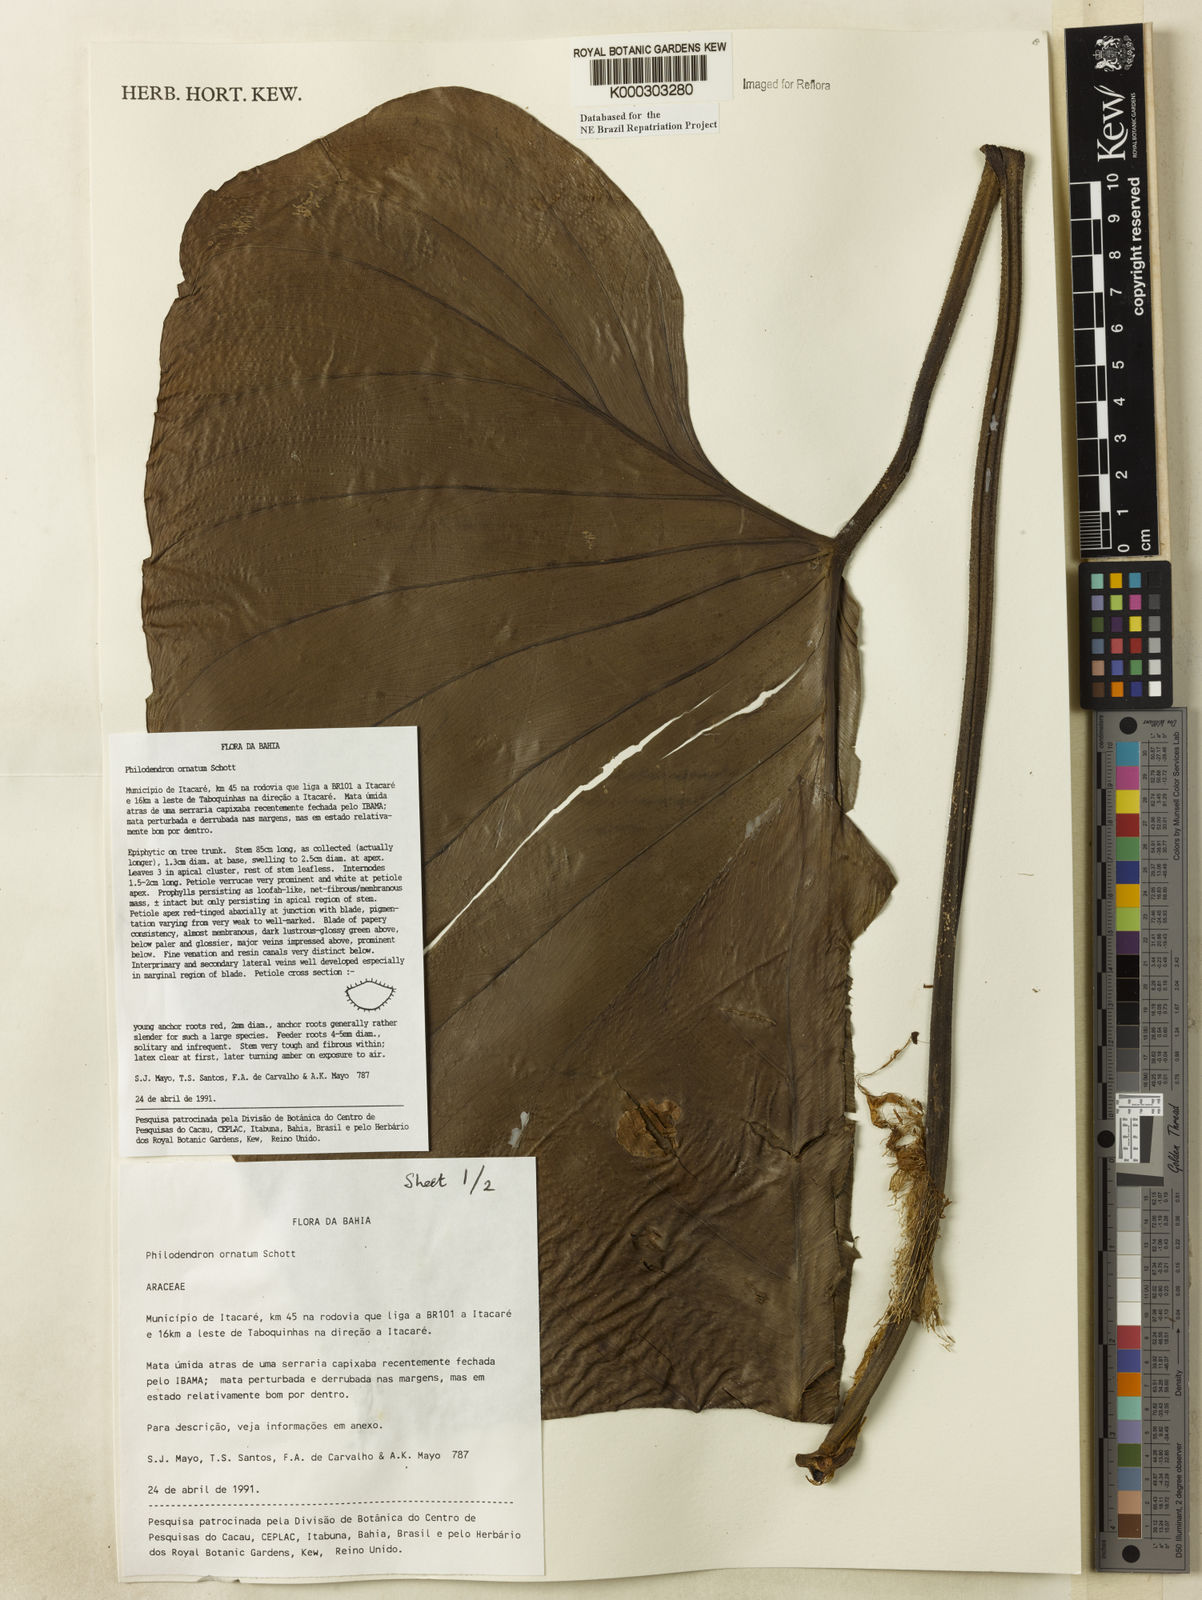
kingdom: Plantae
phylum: Tracheophyta
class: Liliopsida
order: Alismatales
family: Araceae
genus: Philodendron
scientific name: Philodendron ornatum
